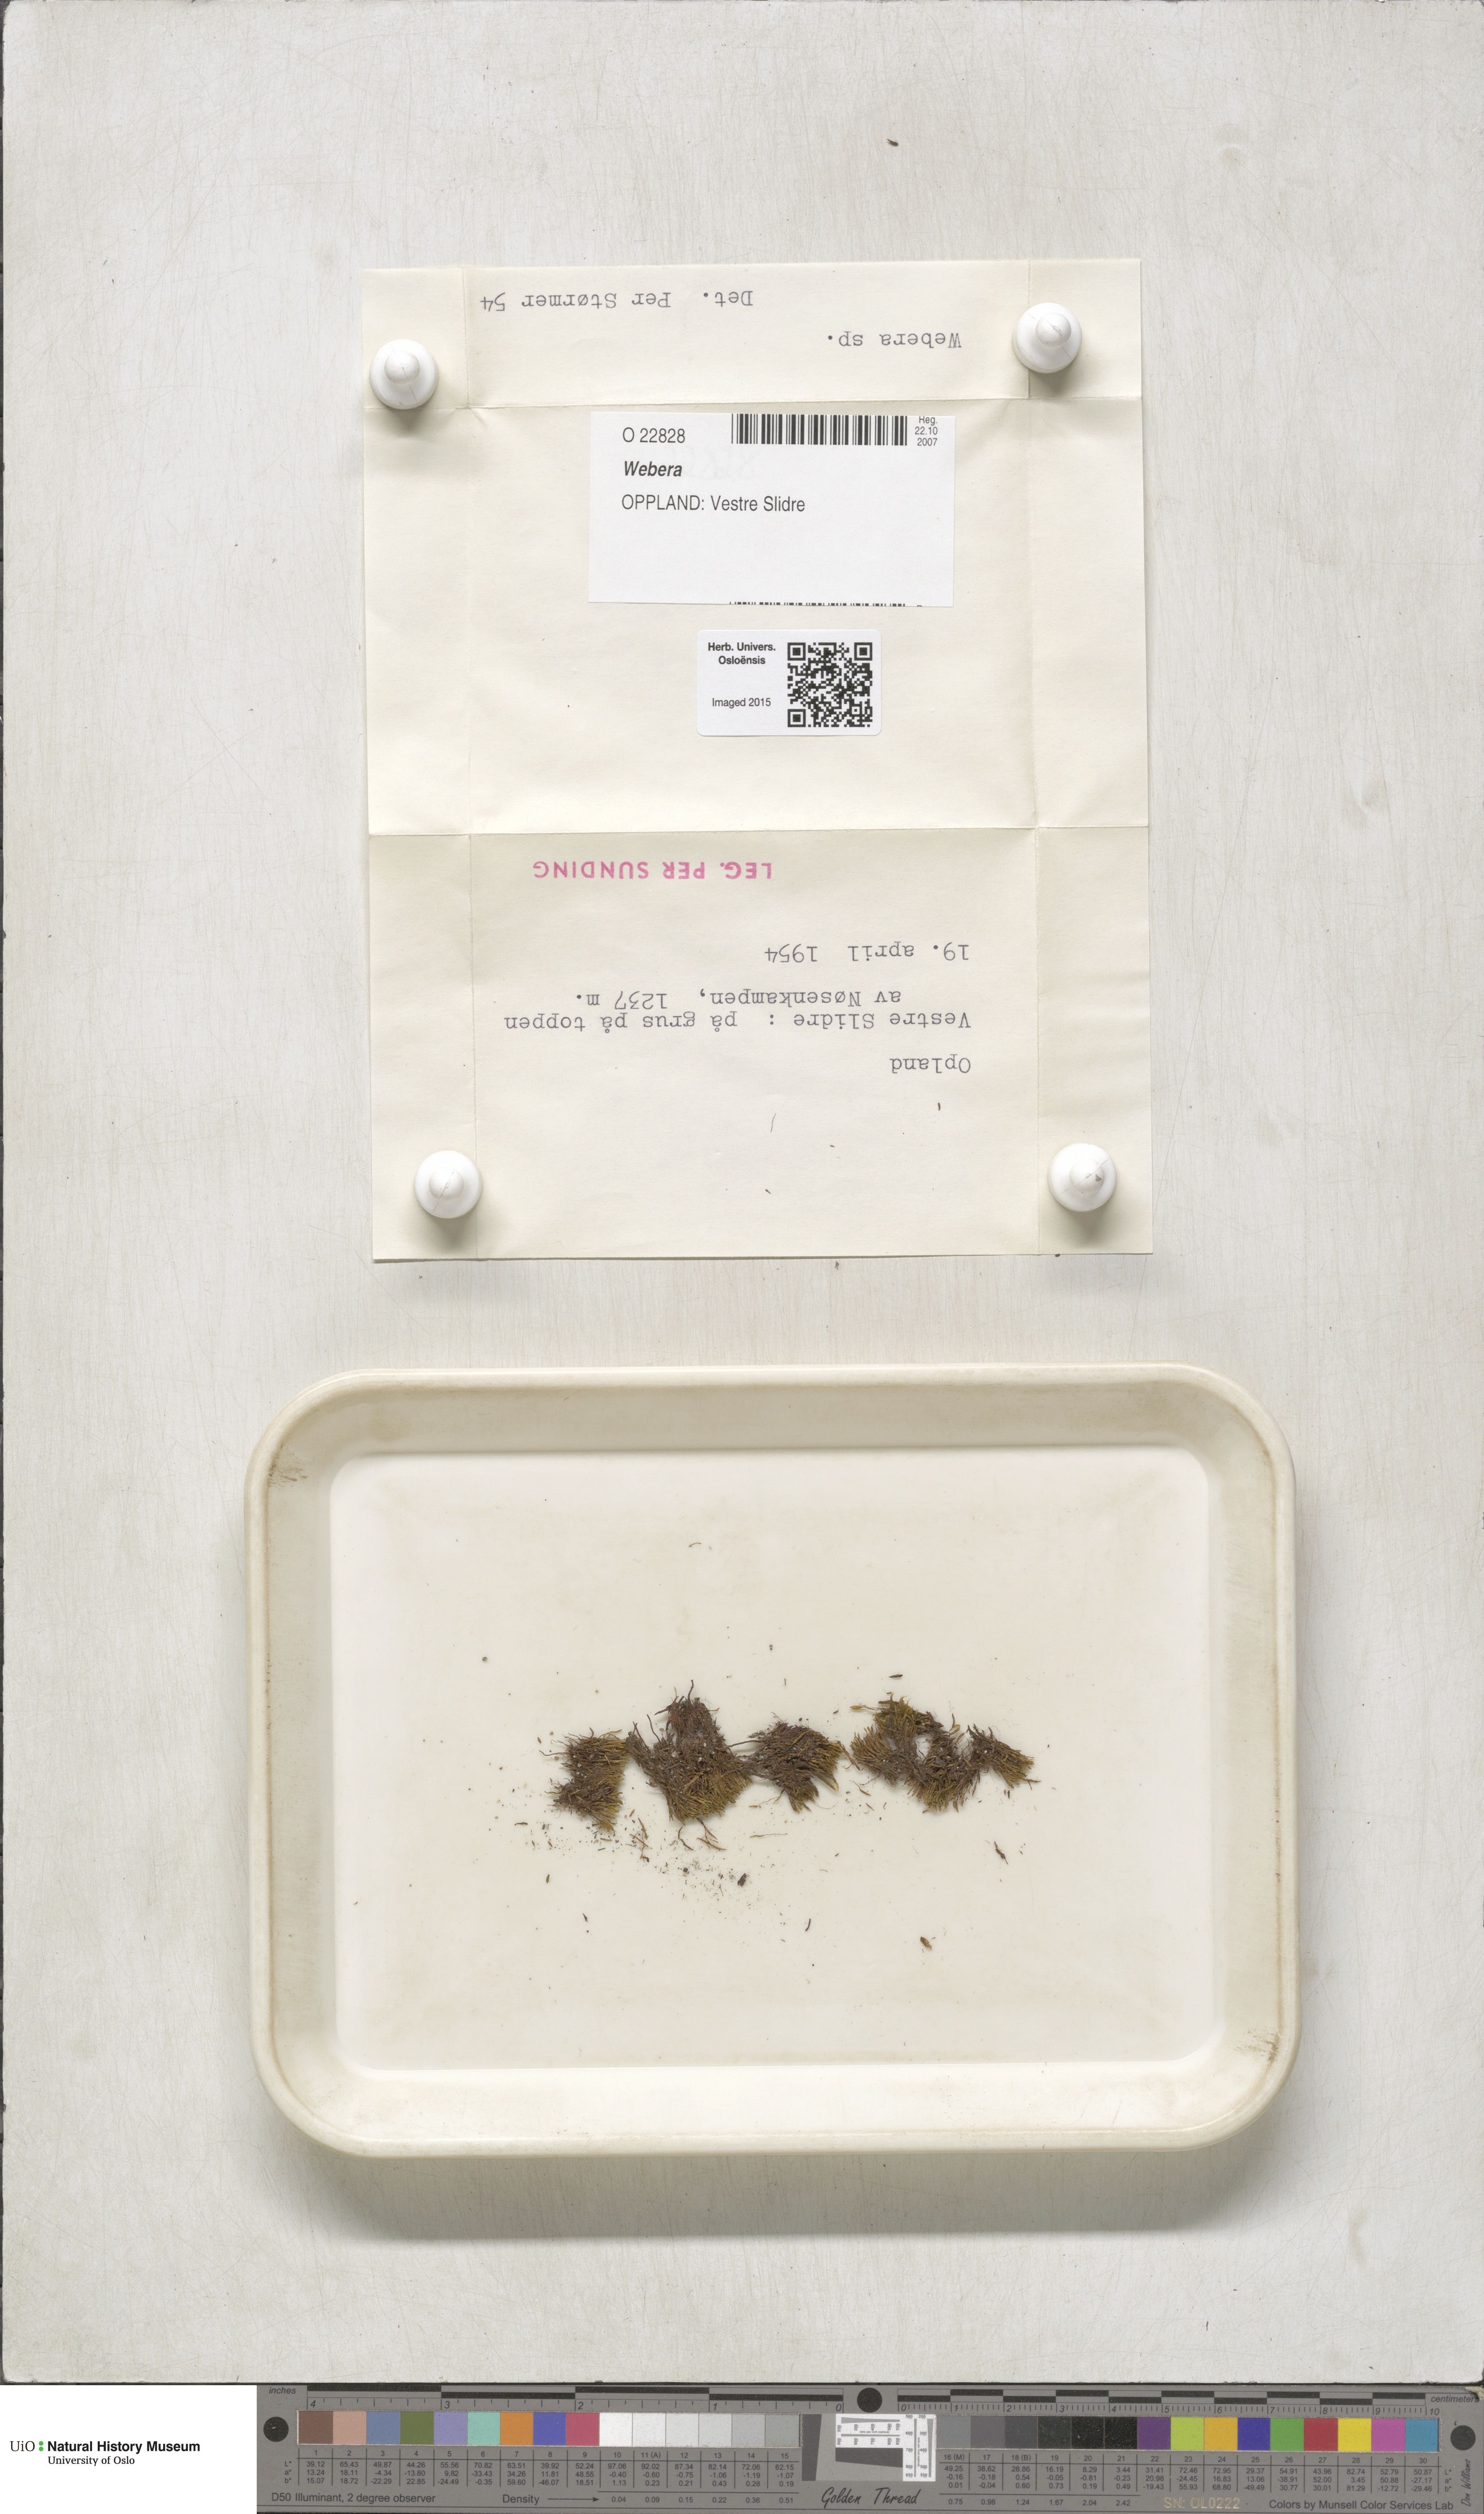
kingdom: Plantae
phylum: Bryophyta
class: Bryopsida
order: Bryales
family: Mniaceae
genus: Pohlia
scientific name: Pohlia
